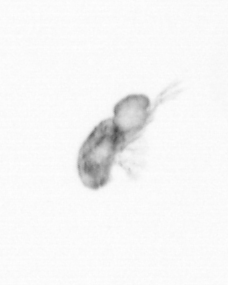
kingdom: Animalia
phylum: Arthropoda
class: Copepoda
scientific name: Copepoda
